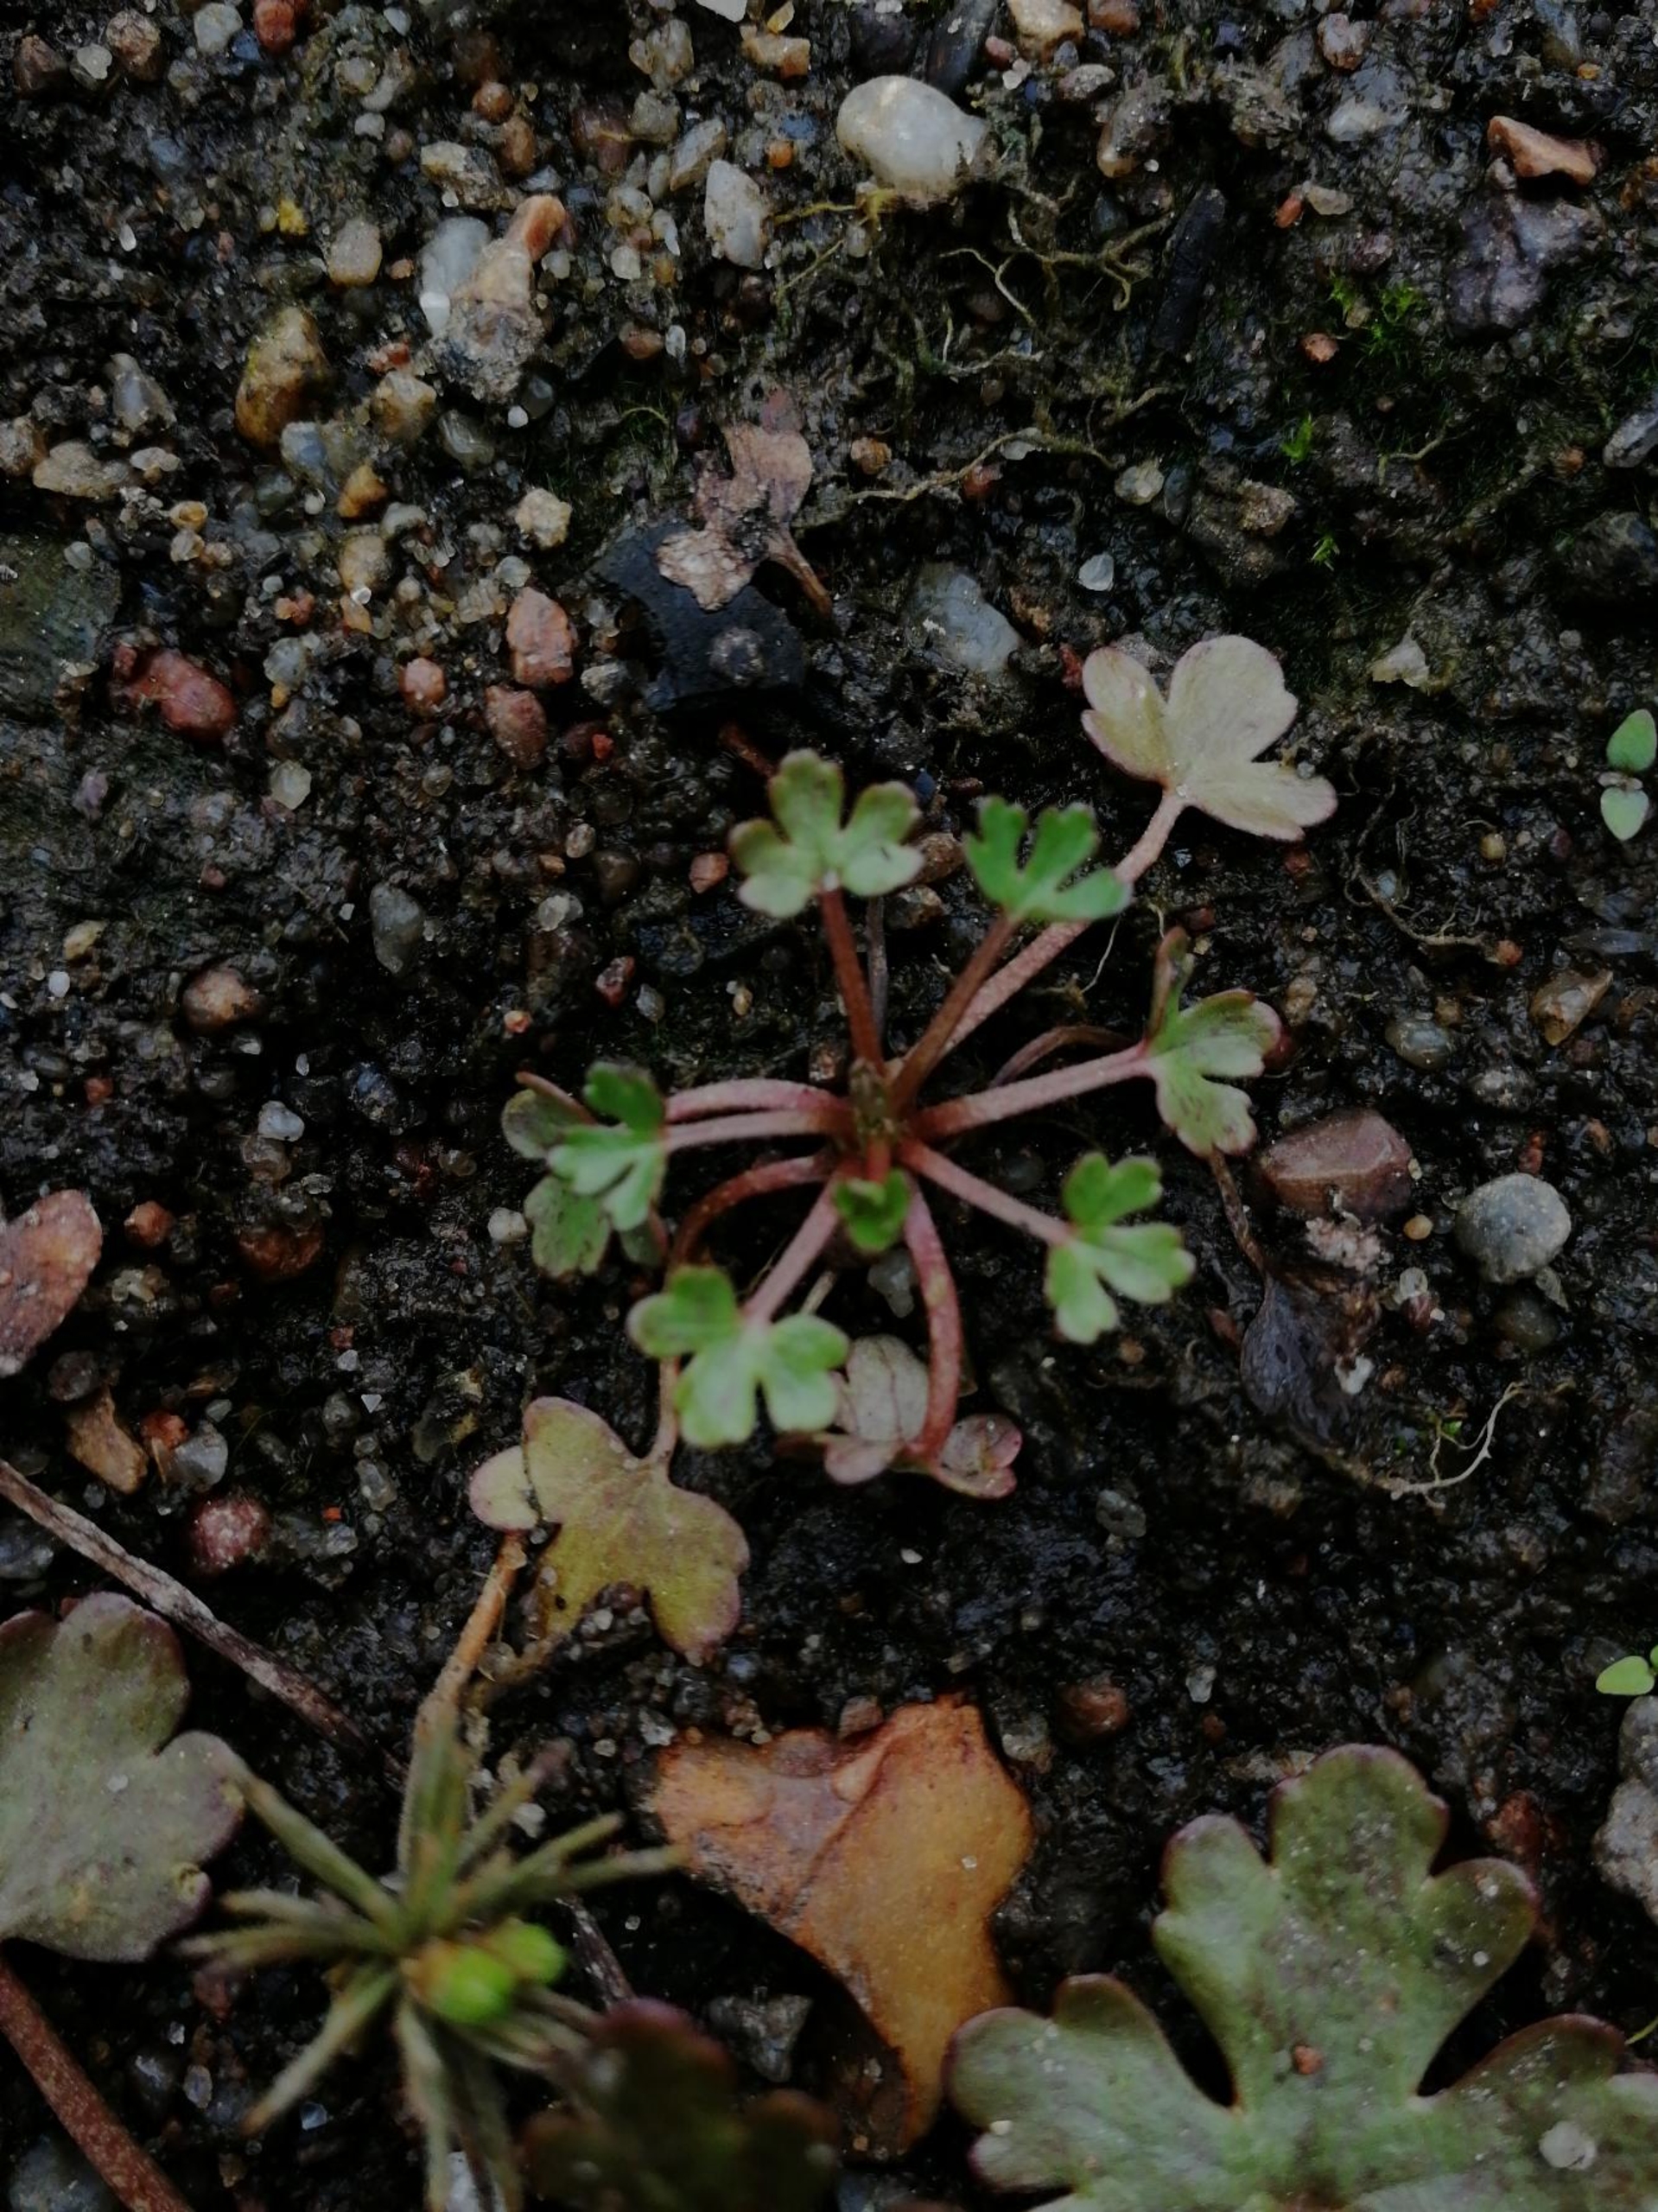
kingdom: Plantae
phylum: Tracheophyta
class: Magnoliopsida
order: Ranunculales
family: Ranunculaceae
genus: Ranunculus
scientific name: Ranunculus sceleratus
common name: Tigger-ranunkel
